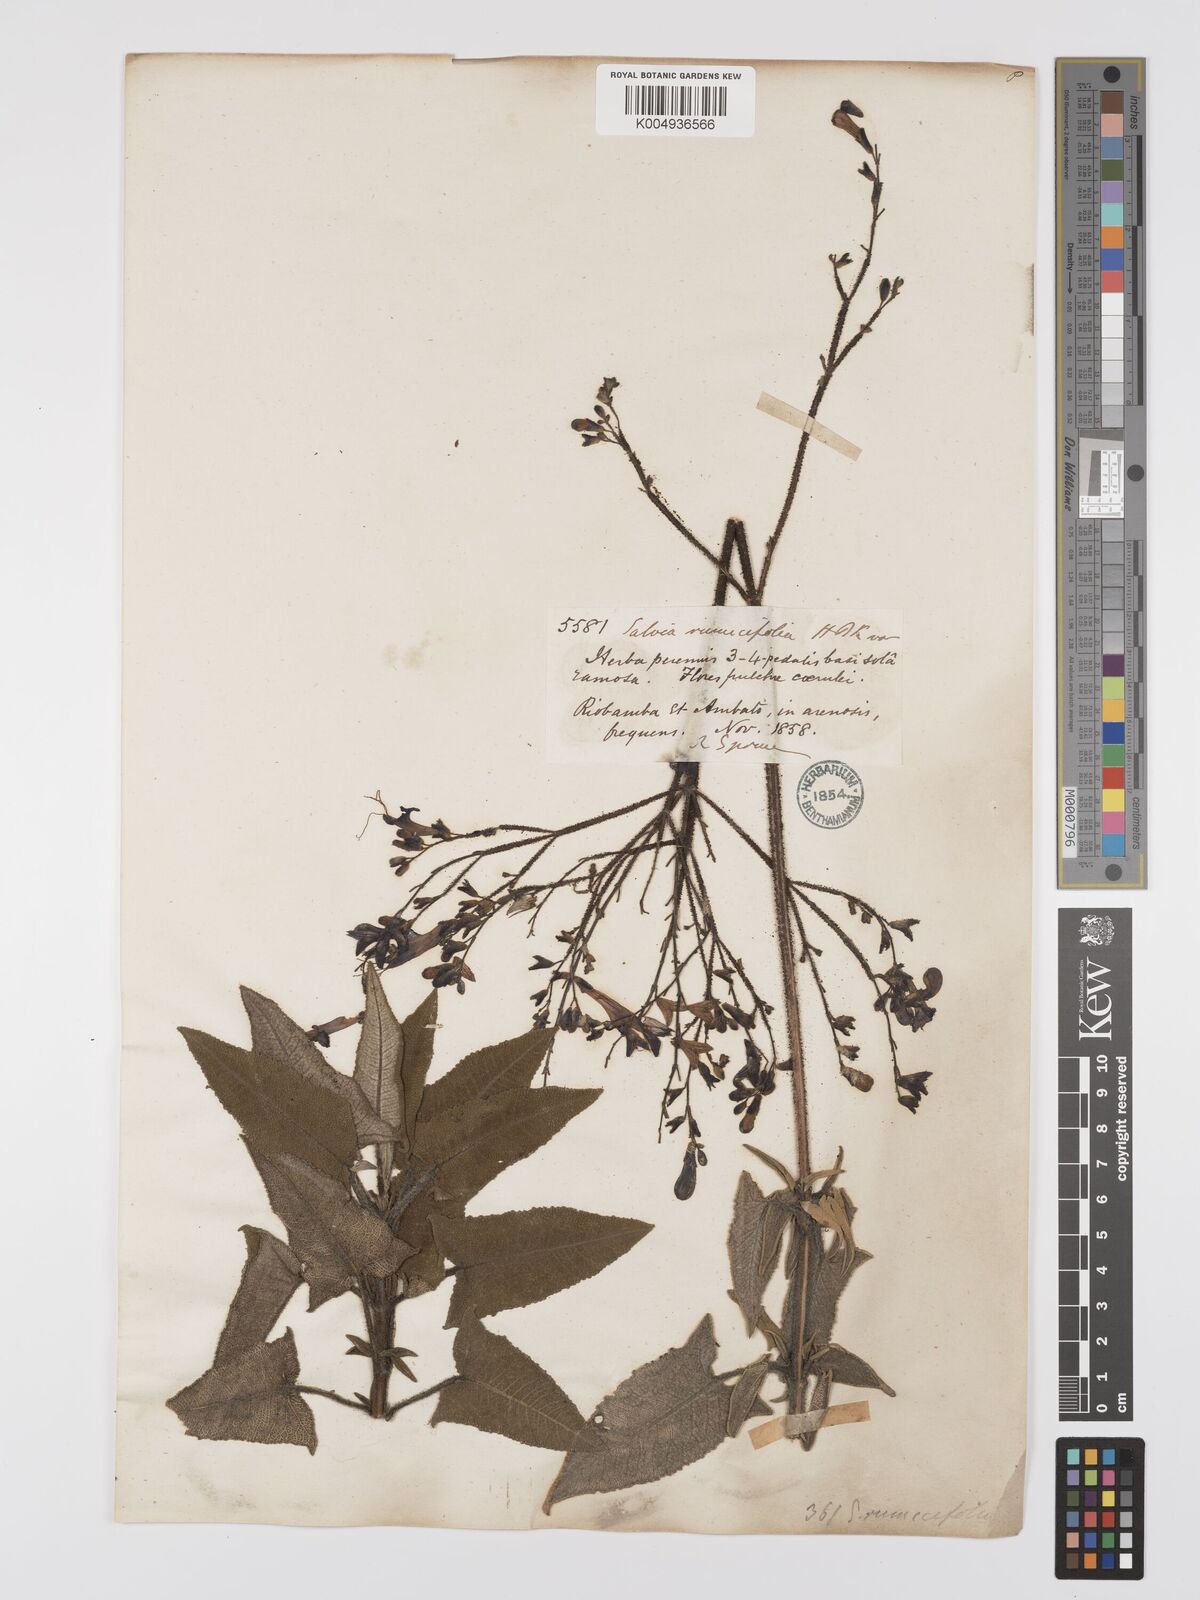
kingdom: Plantae
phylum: Tracheophyta
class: Magnoliopsida
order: Lamiales
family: Lamiaceae
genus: Salvia
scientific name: Salvia sagittata
